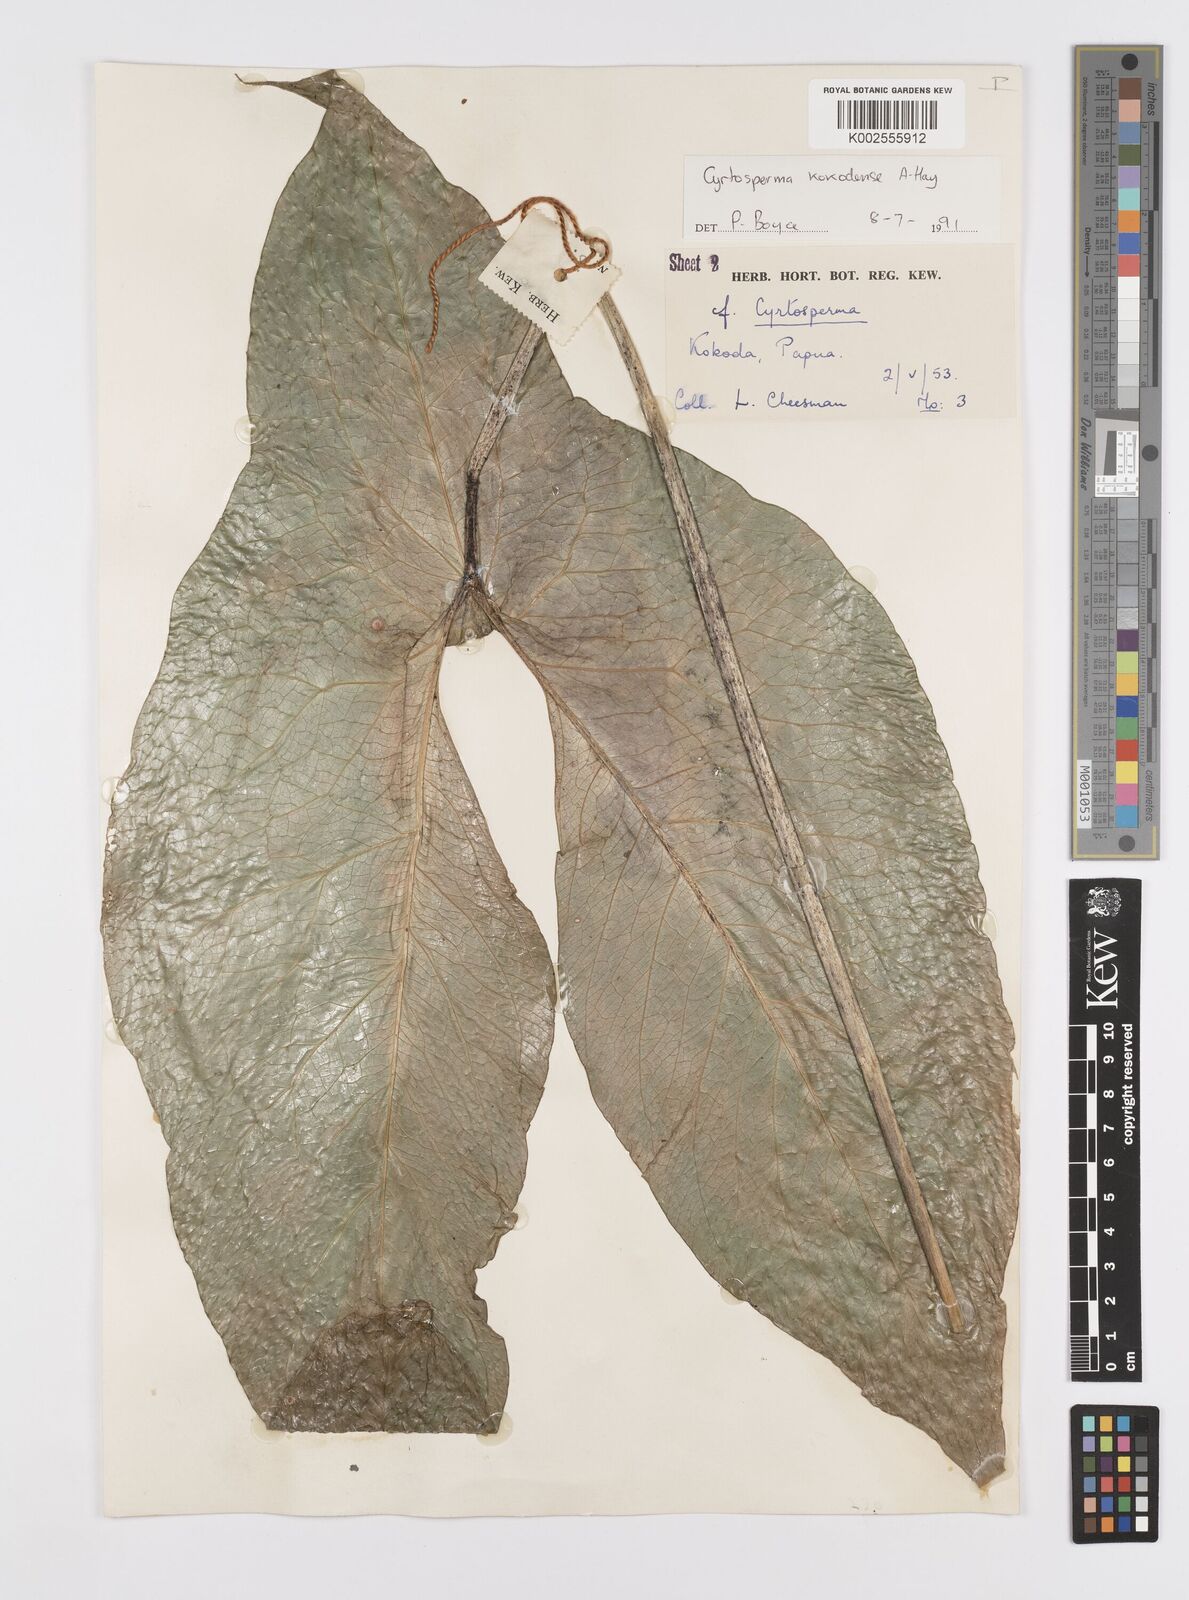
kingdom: Plantae
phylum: Tracheophyta
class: Liliopsida
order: Alismatales
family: Araceae
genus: Cyrtosperma
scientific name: Cyrtosperma kokodense
